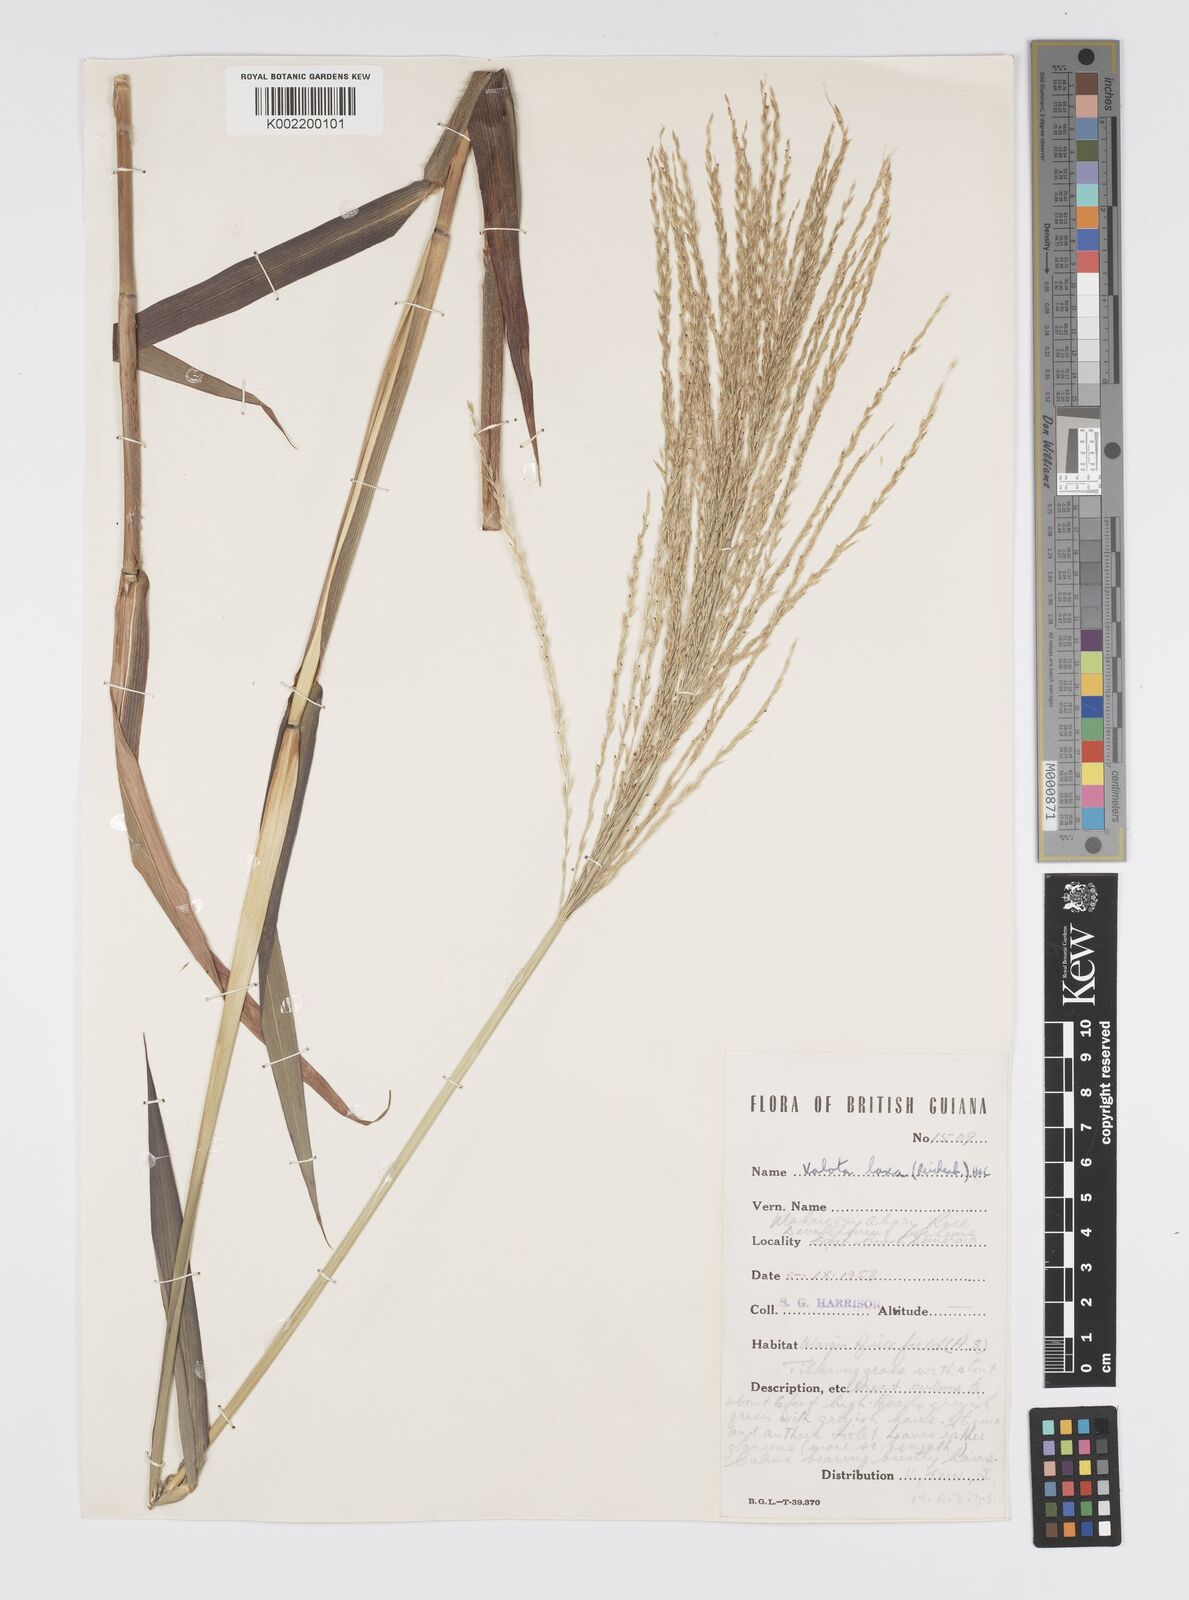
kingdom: Plantae
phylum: Tracheophyta
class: Liliopsida
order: Poales
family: Poaceae
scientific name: Poaceae
